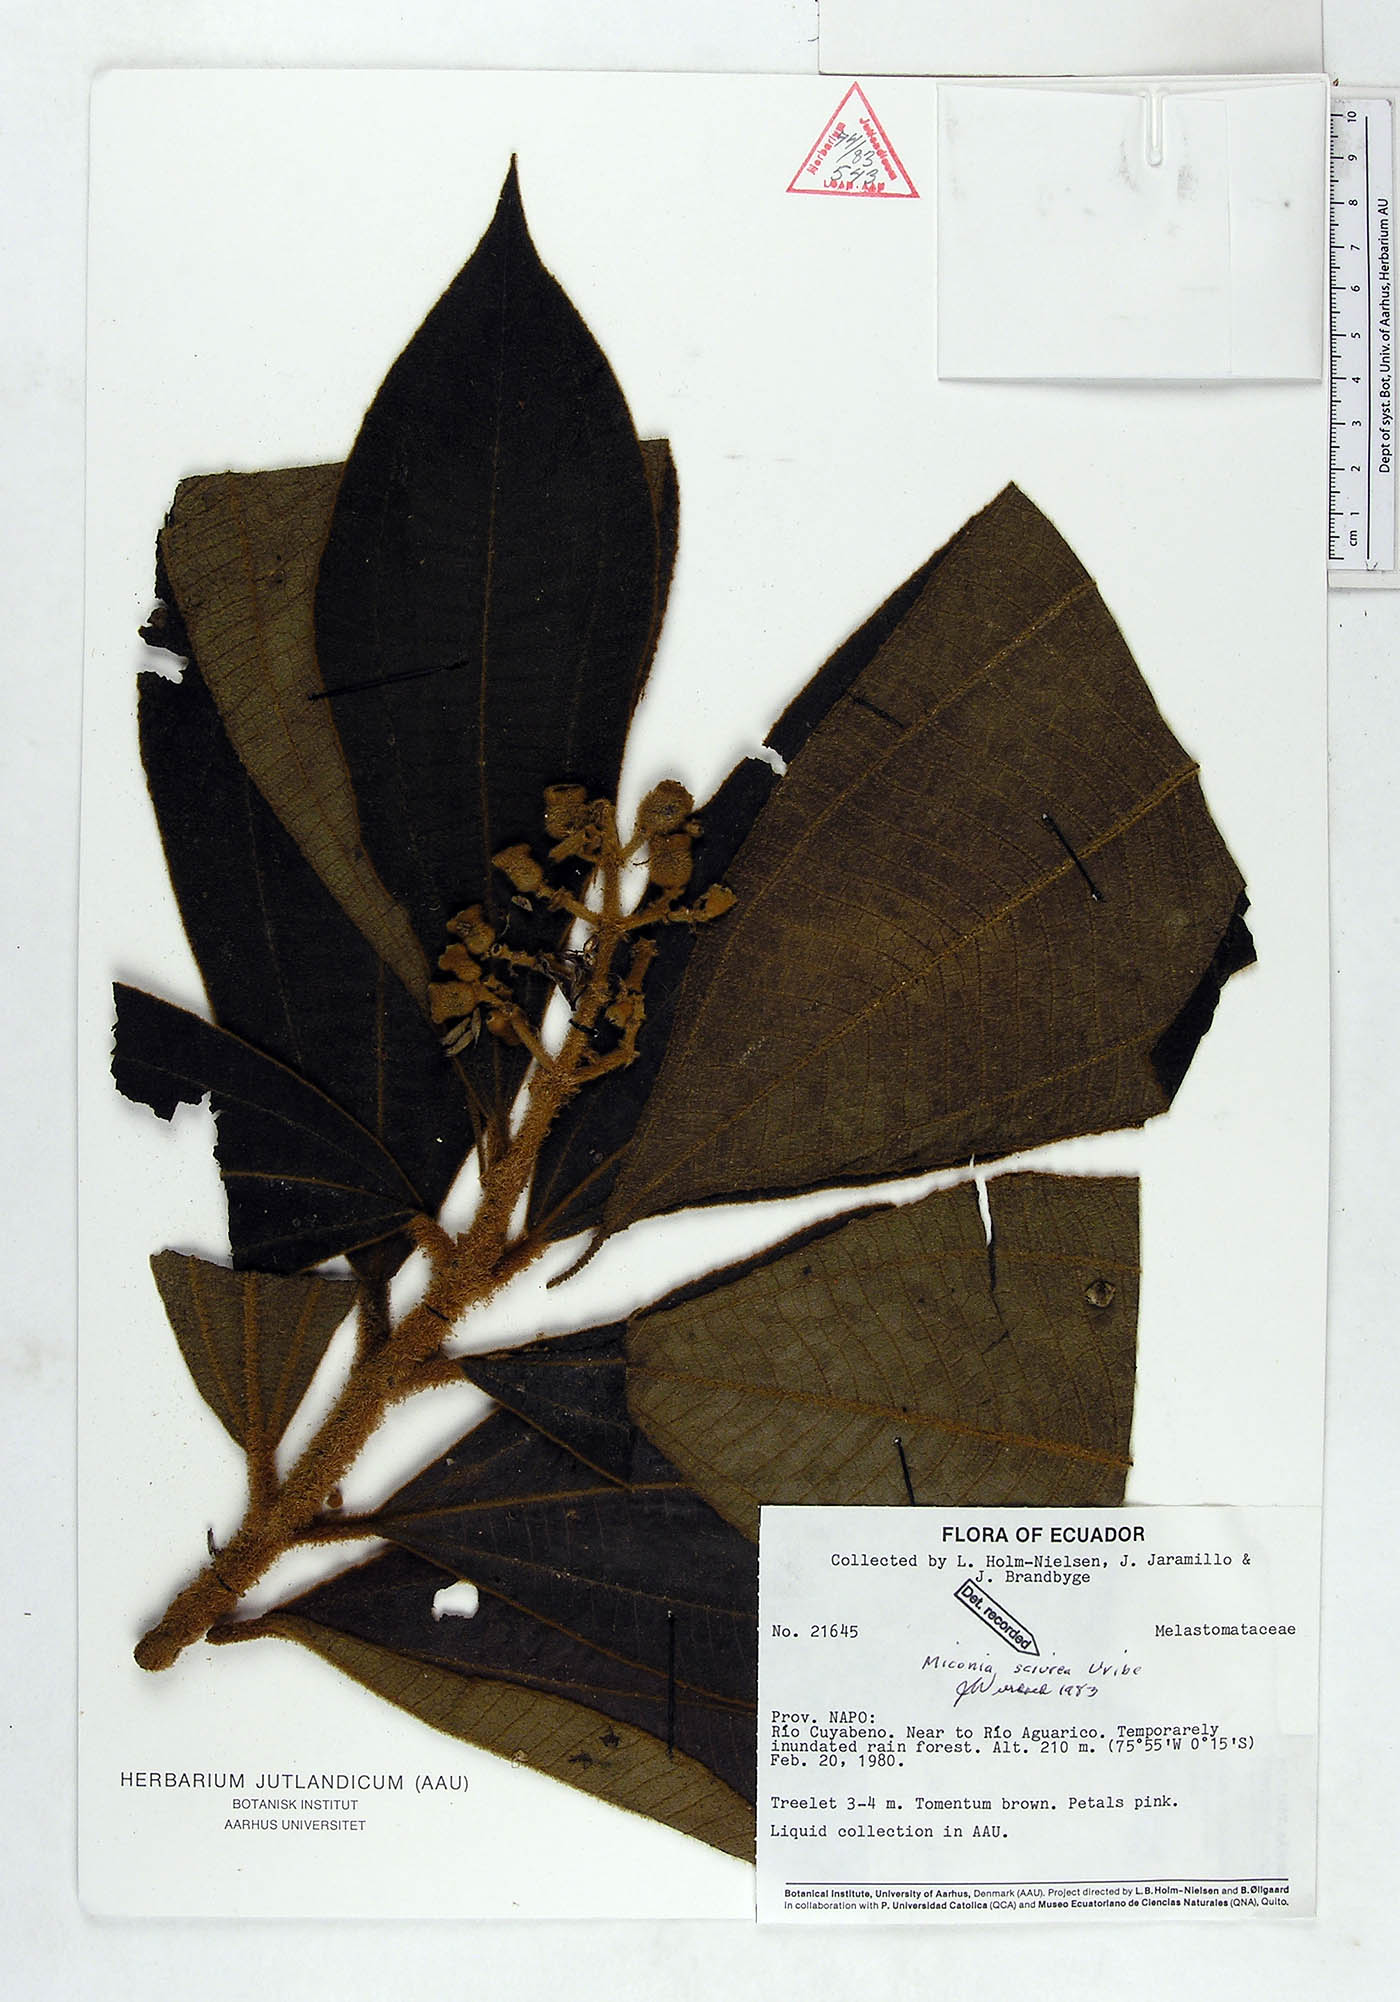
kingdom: Plantae
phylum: Tracheophyta
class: Magnoliopsida
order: Myrtales
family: Melastomataceae
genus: Miconia
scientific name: Miconia sciurea
